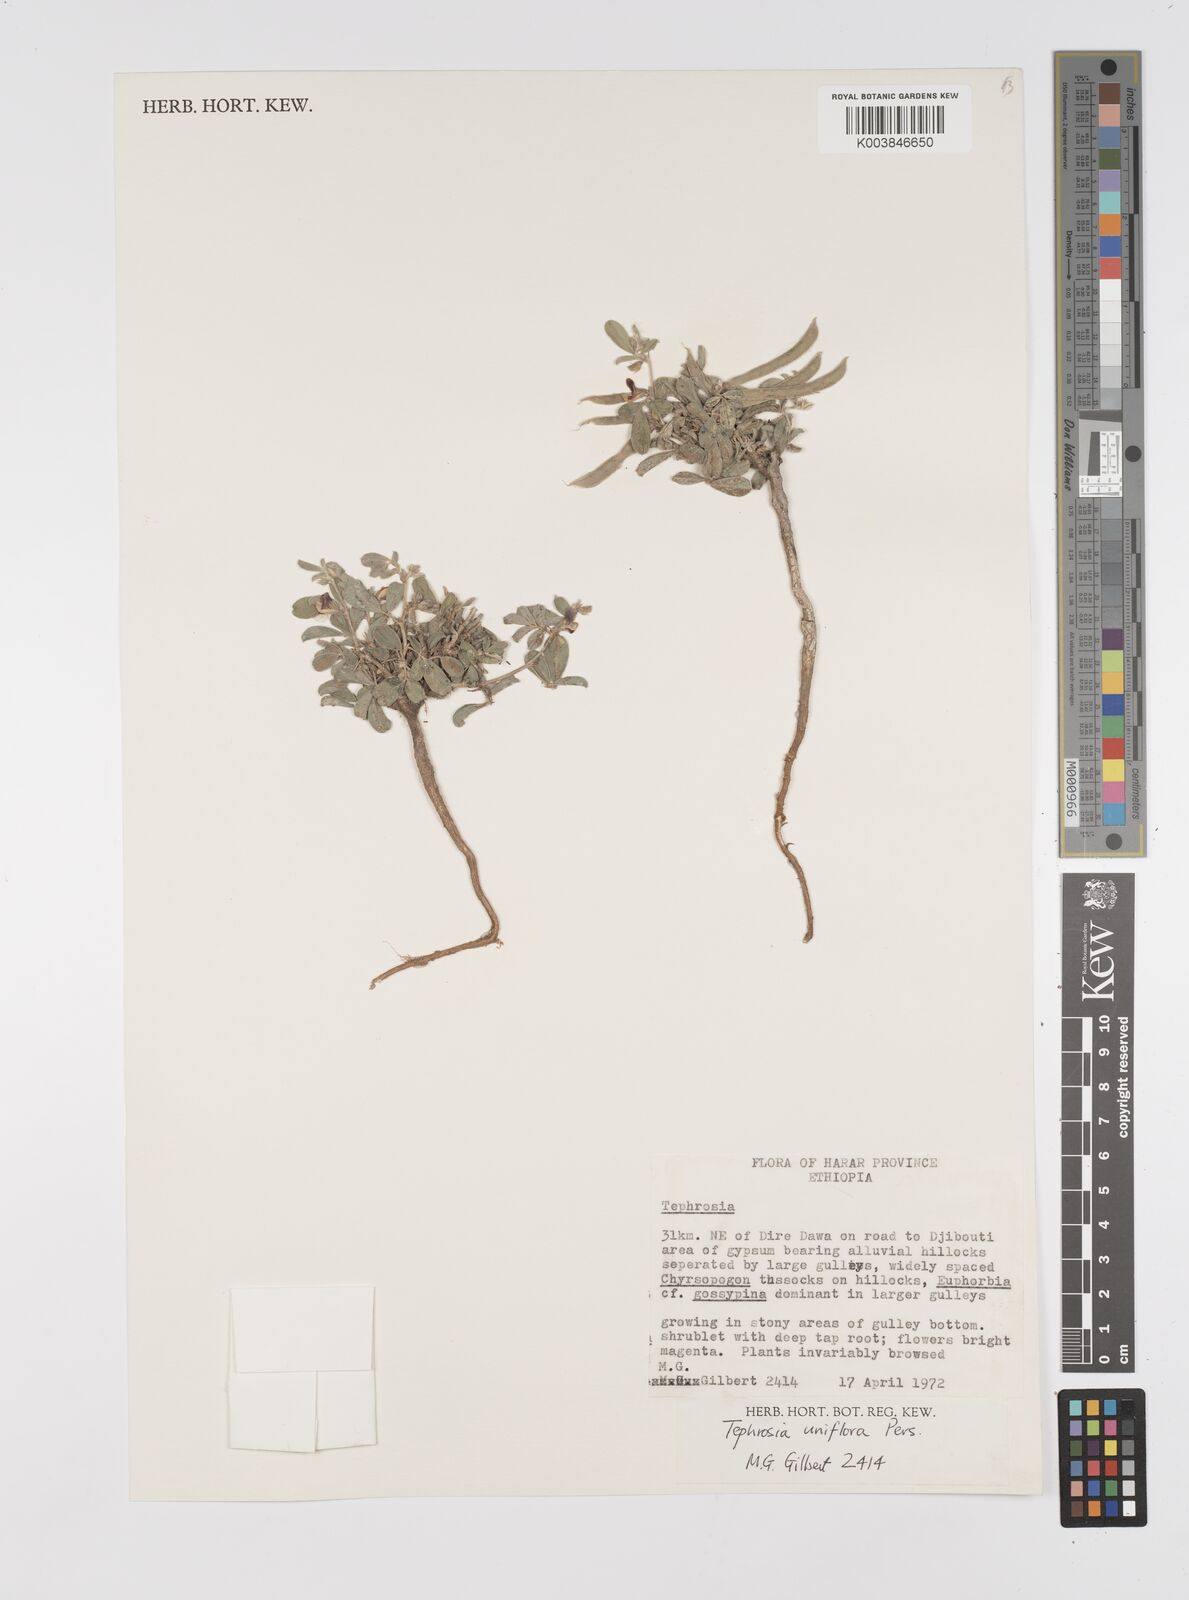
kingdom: Plantae
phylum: Tracheophyta
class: Magnoliopsida
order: Fabales
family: Fabaceae
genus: Tephrosia
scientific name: Tephrosia uniflora
